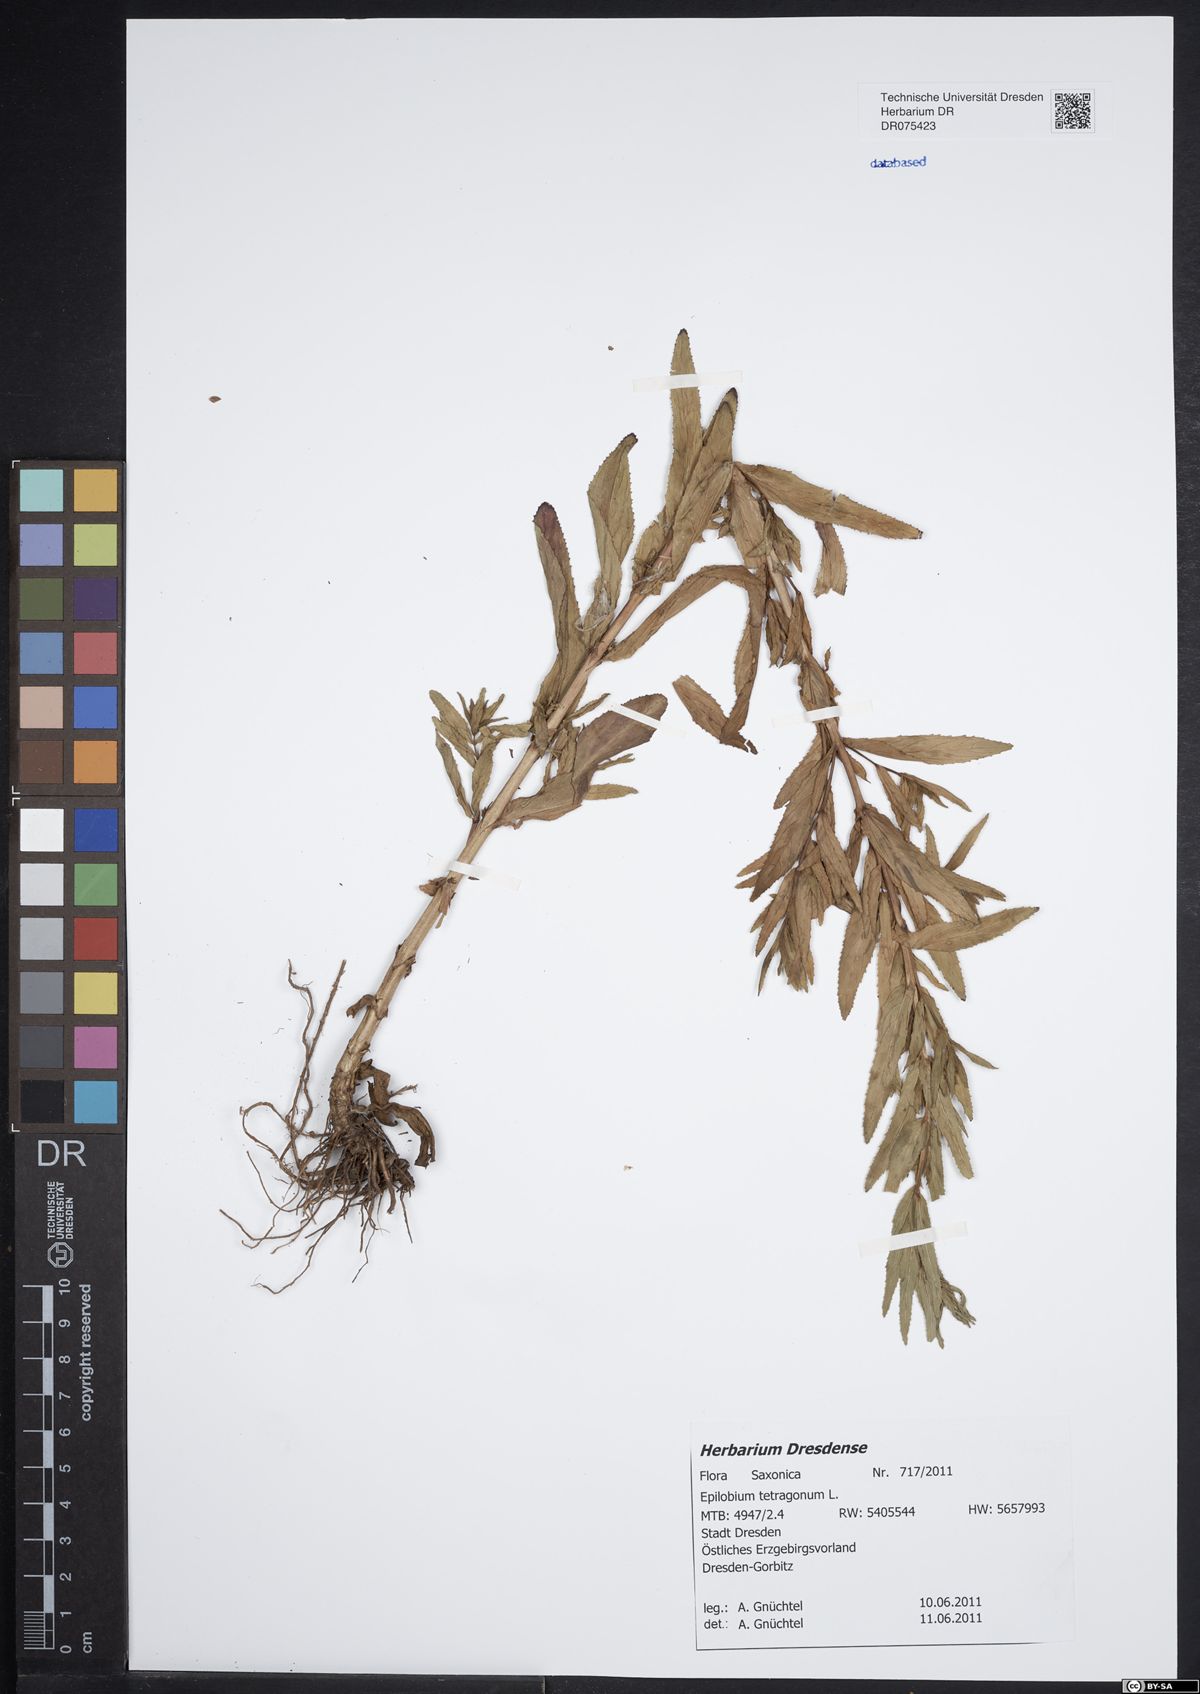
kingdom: Plantae
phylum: Tracheophyta
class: Magnoliopsida
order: Myrtales
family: Onagraceae
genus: Epilobium
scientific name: Epilobium tetragonum
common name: Square-stemmed willowherb
